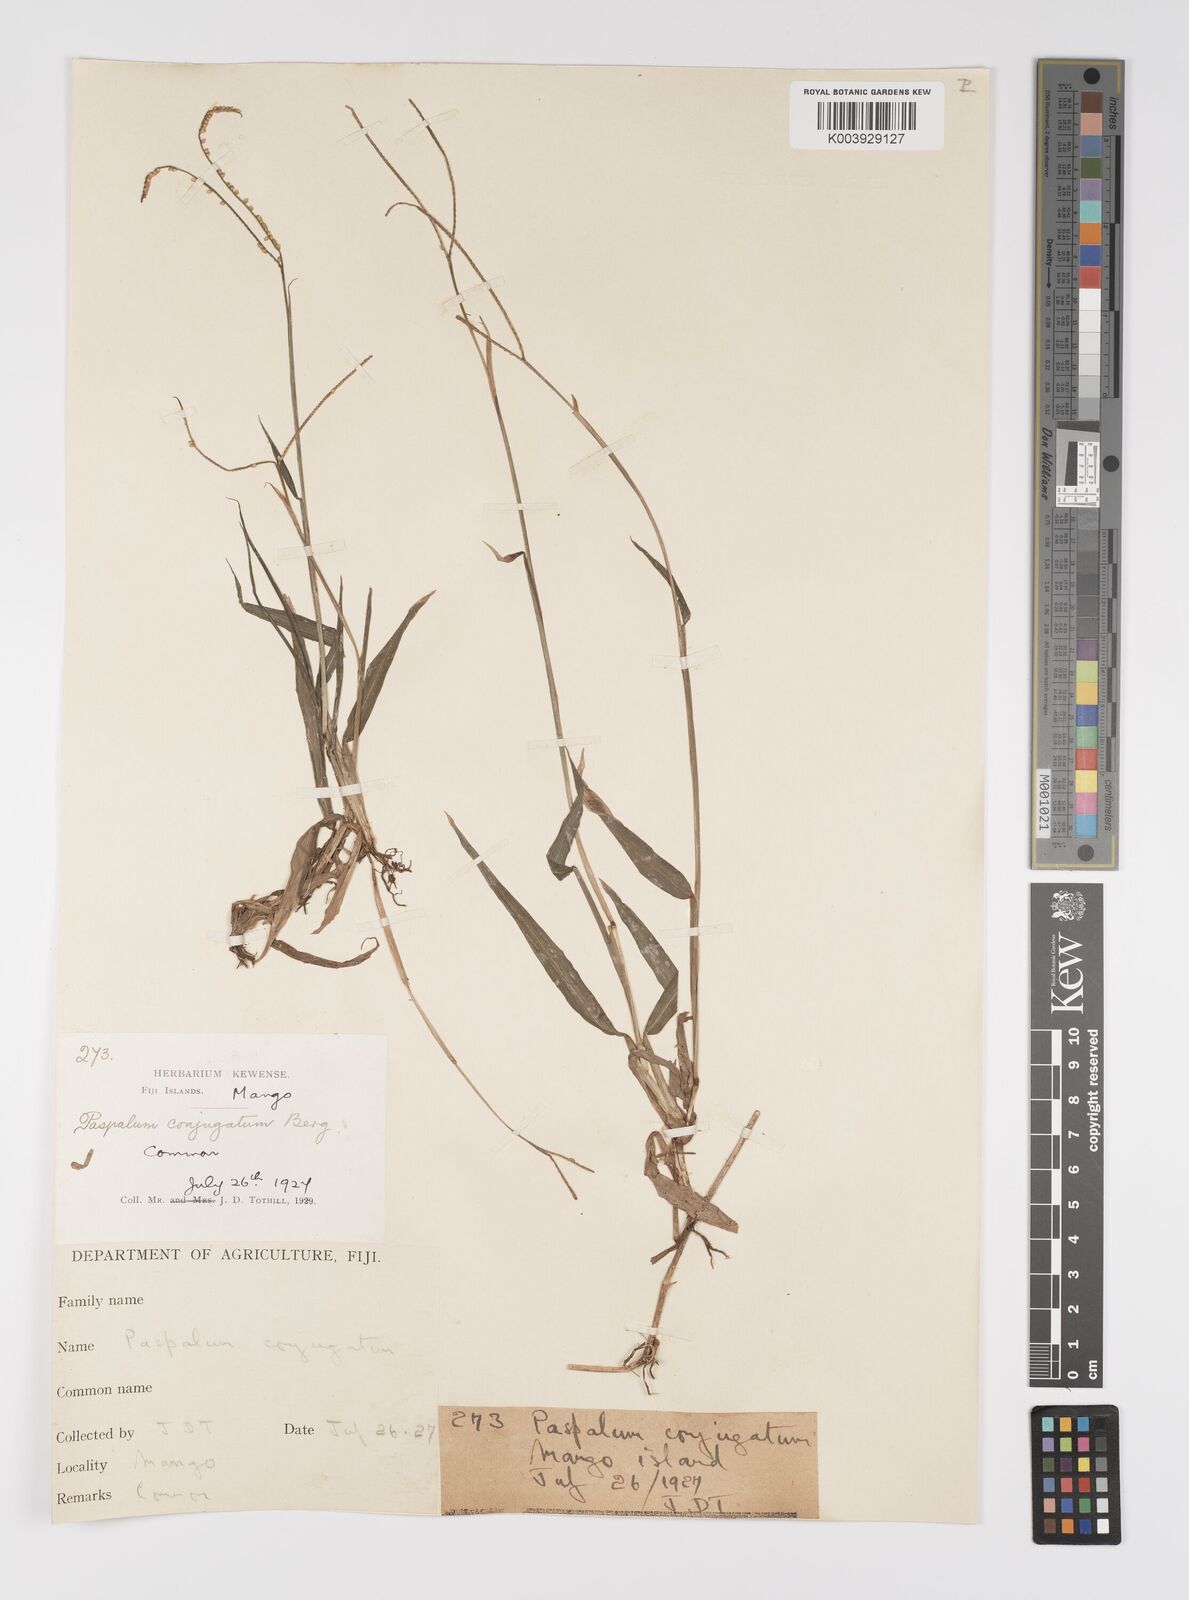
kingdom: Plantae
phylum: Tracheophyta
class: Liliopsida
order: Poales
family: Poaceae
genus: Paspalum
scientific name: Paspalum conjugatum
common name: Hilograss
